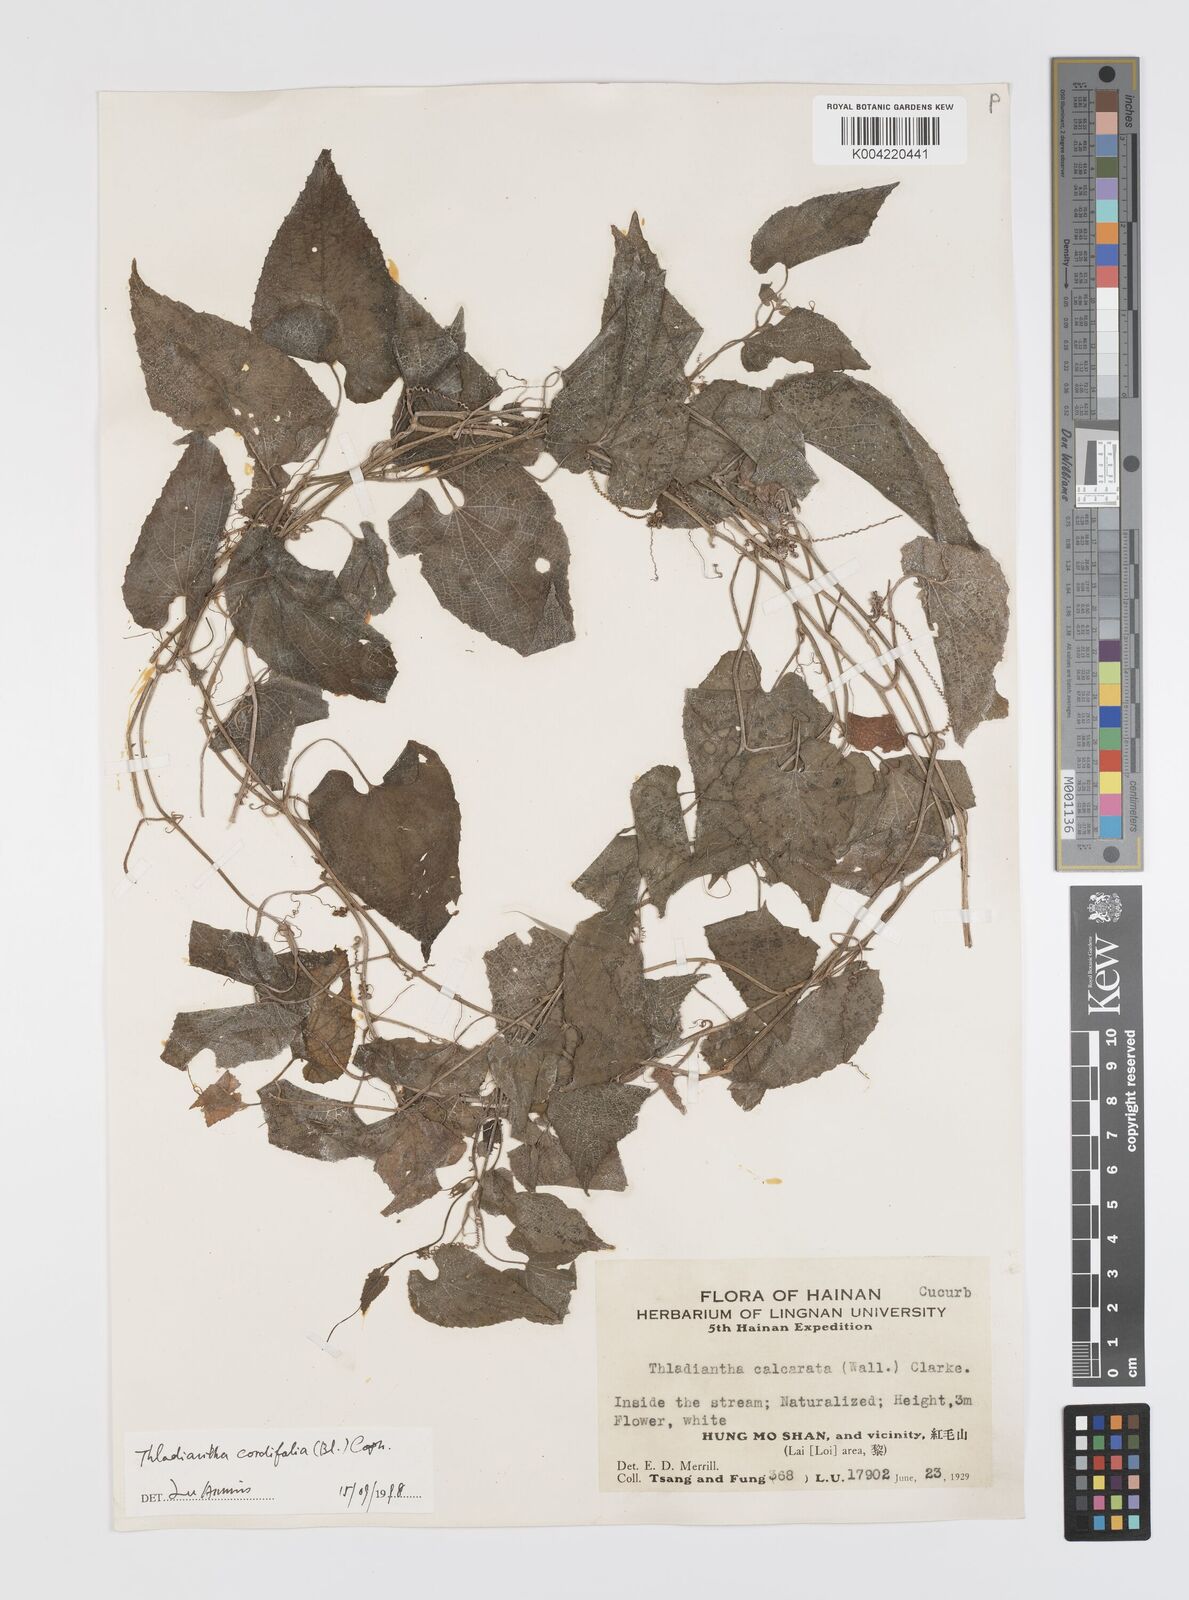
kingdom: Plantae
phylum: Tracheophyta
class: Magnoliopsida
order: Cucurbitales
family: Cucurbitaceae
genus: Thladiantha
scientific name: Thladiantha cordifolia
